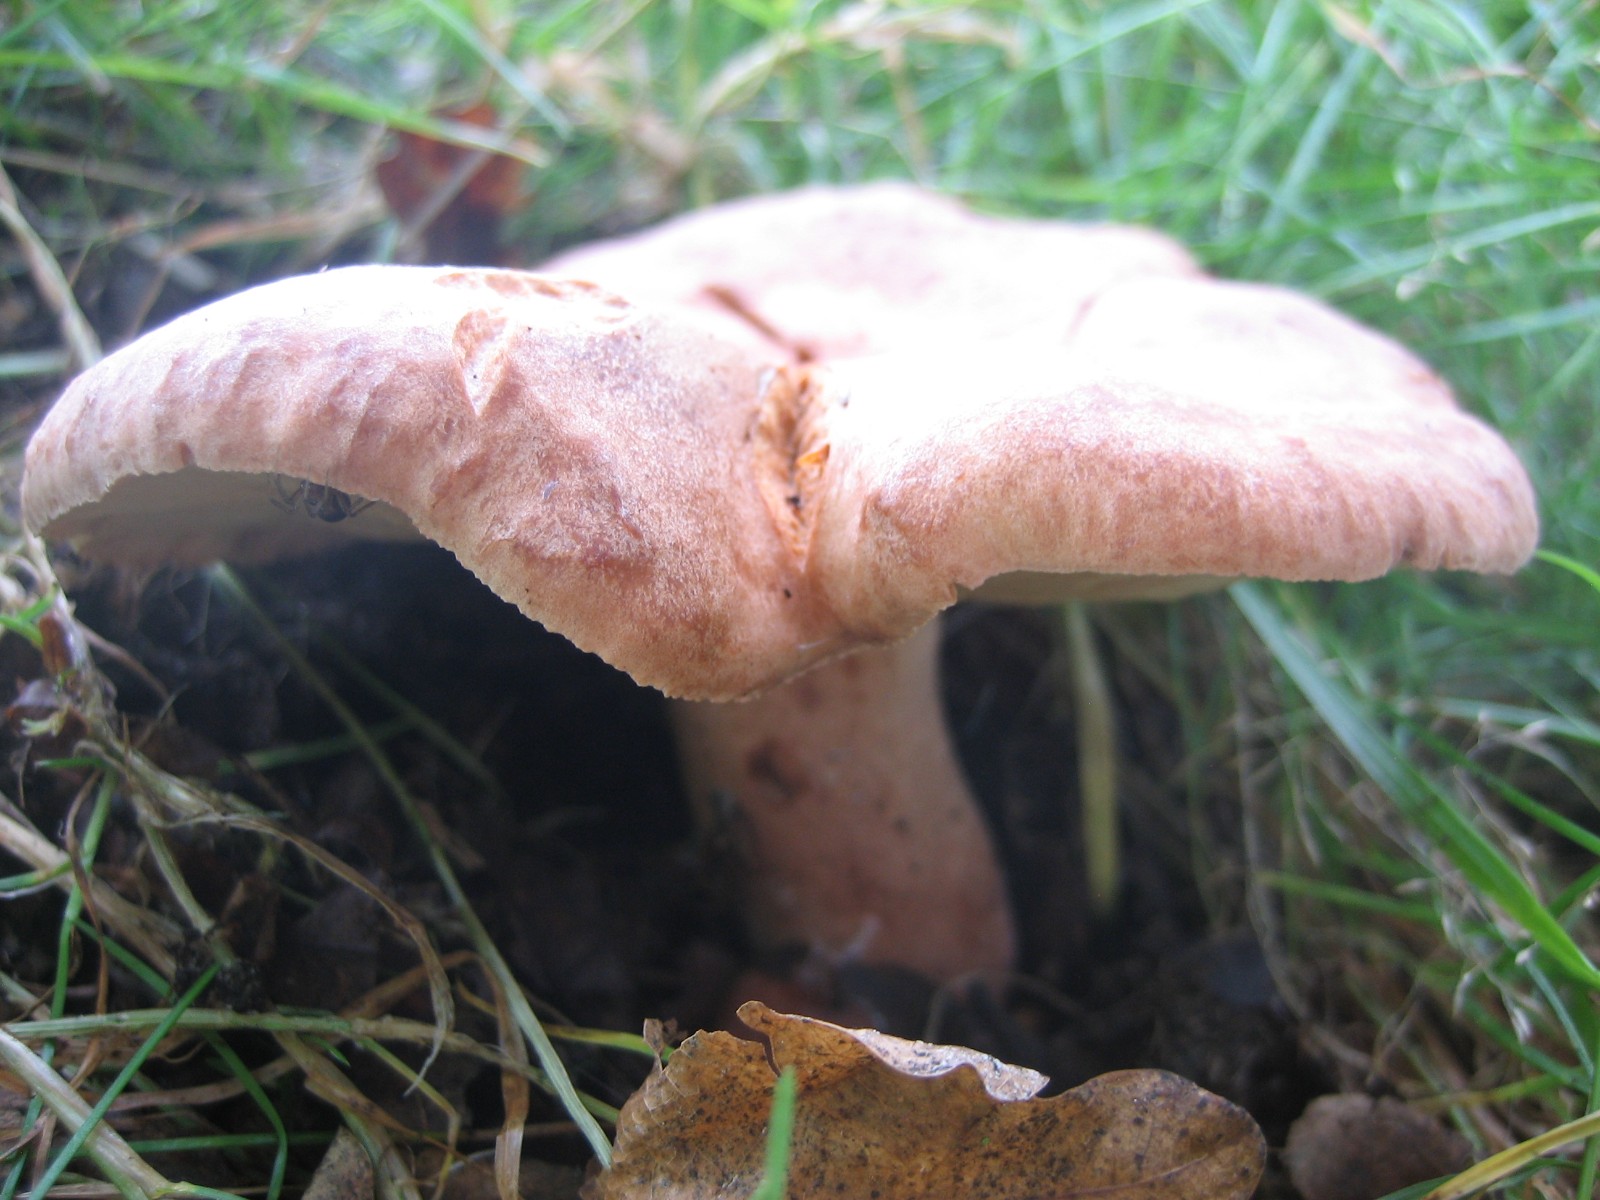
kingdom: Fungi
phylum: Basidiomycota
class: Agaricomycetes
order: Russulales
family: Russulaceae
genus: Lactarius
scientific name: Lactarius quietus
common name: ege-mælkehat
